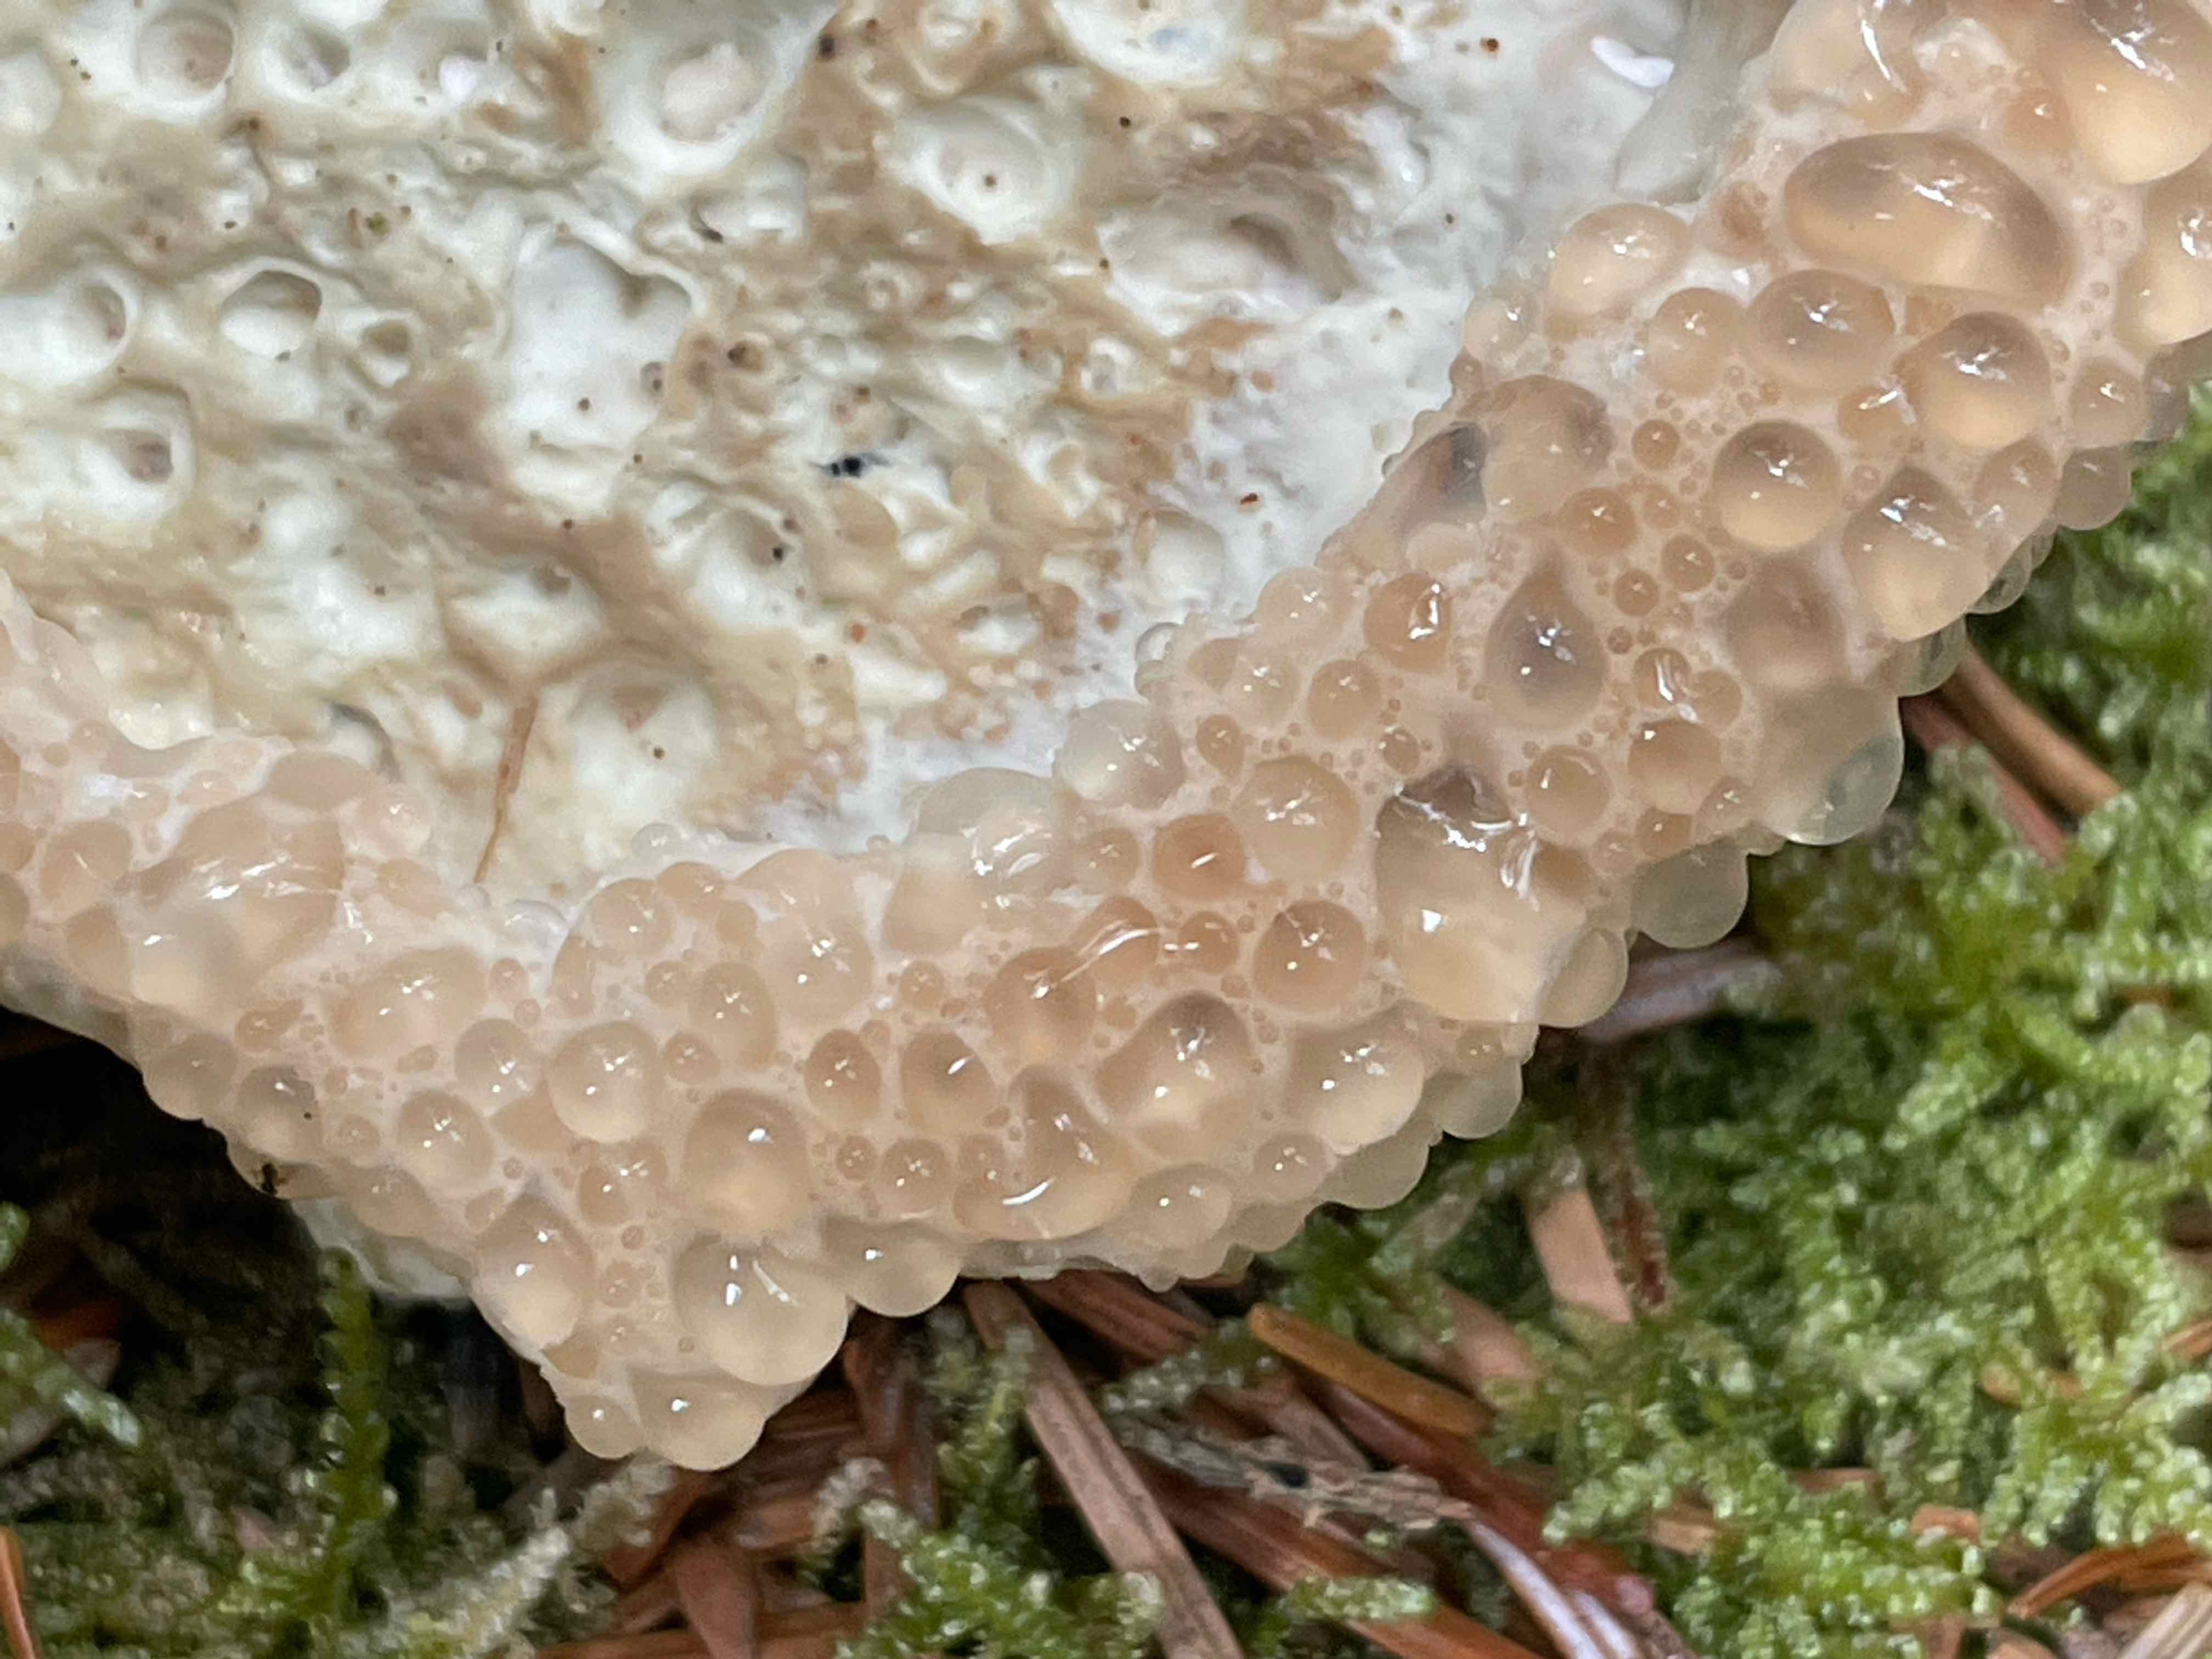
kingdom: Fungi
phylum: Basidiomycota
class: Agaricomycetes
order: Polyporales
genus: Calcipostia
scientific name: Calcipostia guttulata
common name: dråbe-kødporesvamp
